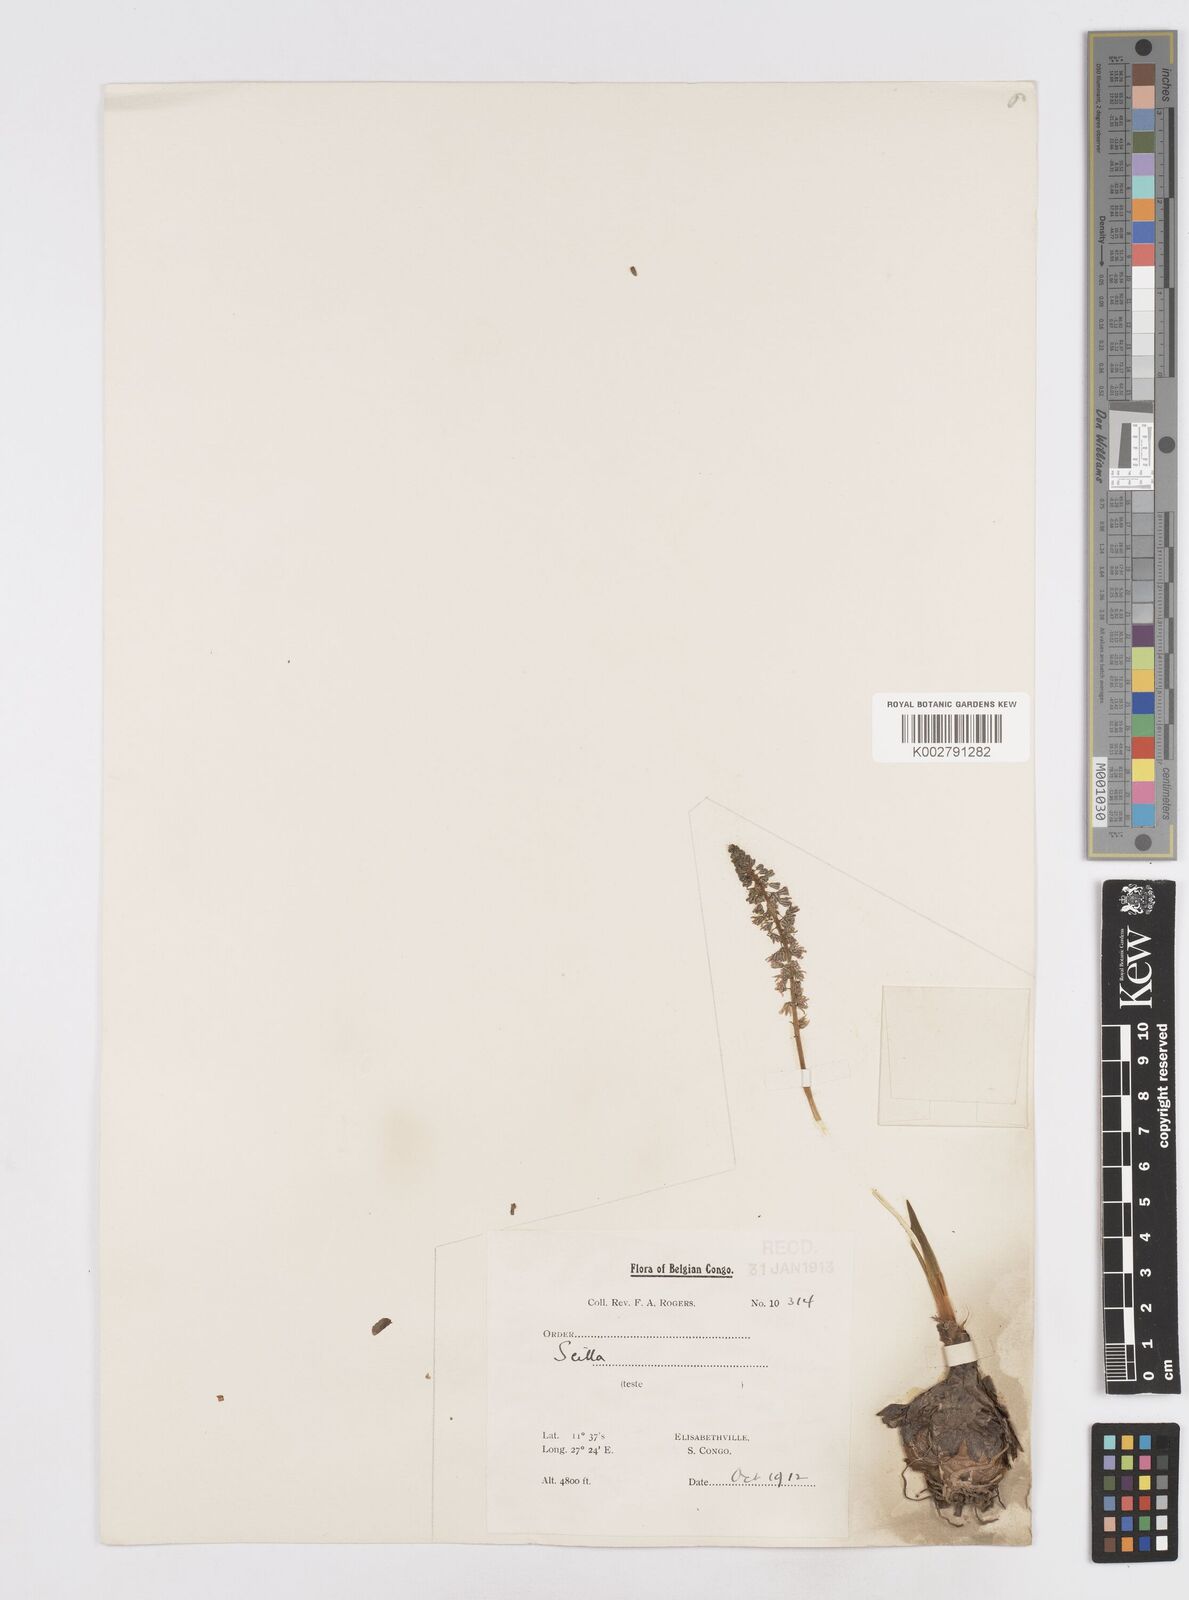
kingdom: Plantae
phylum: Tracheophyta
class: Liliopsida
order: Asparagales
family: Asparagaceae
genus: Scilla
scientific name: Scilla
